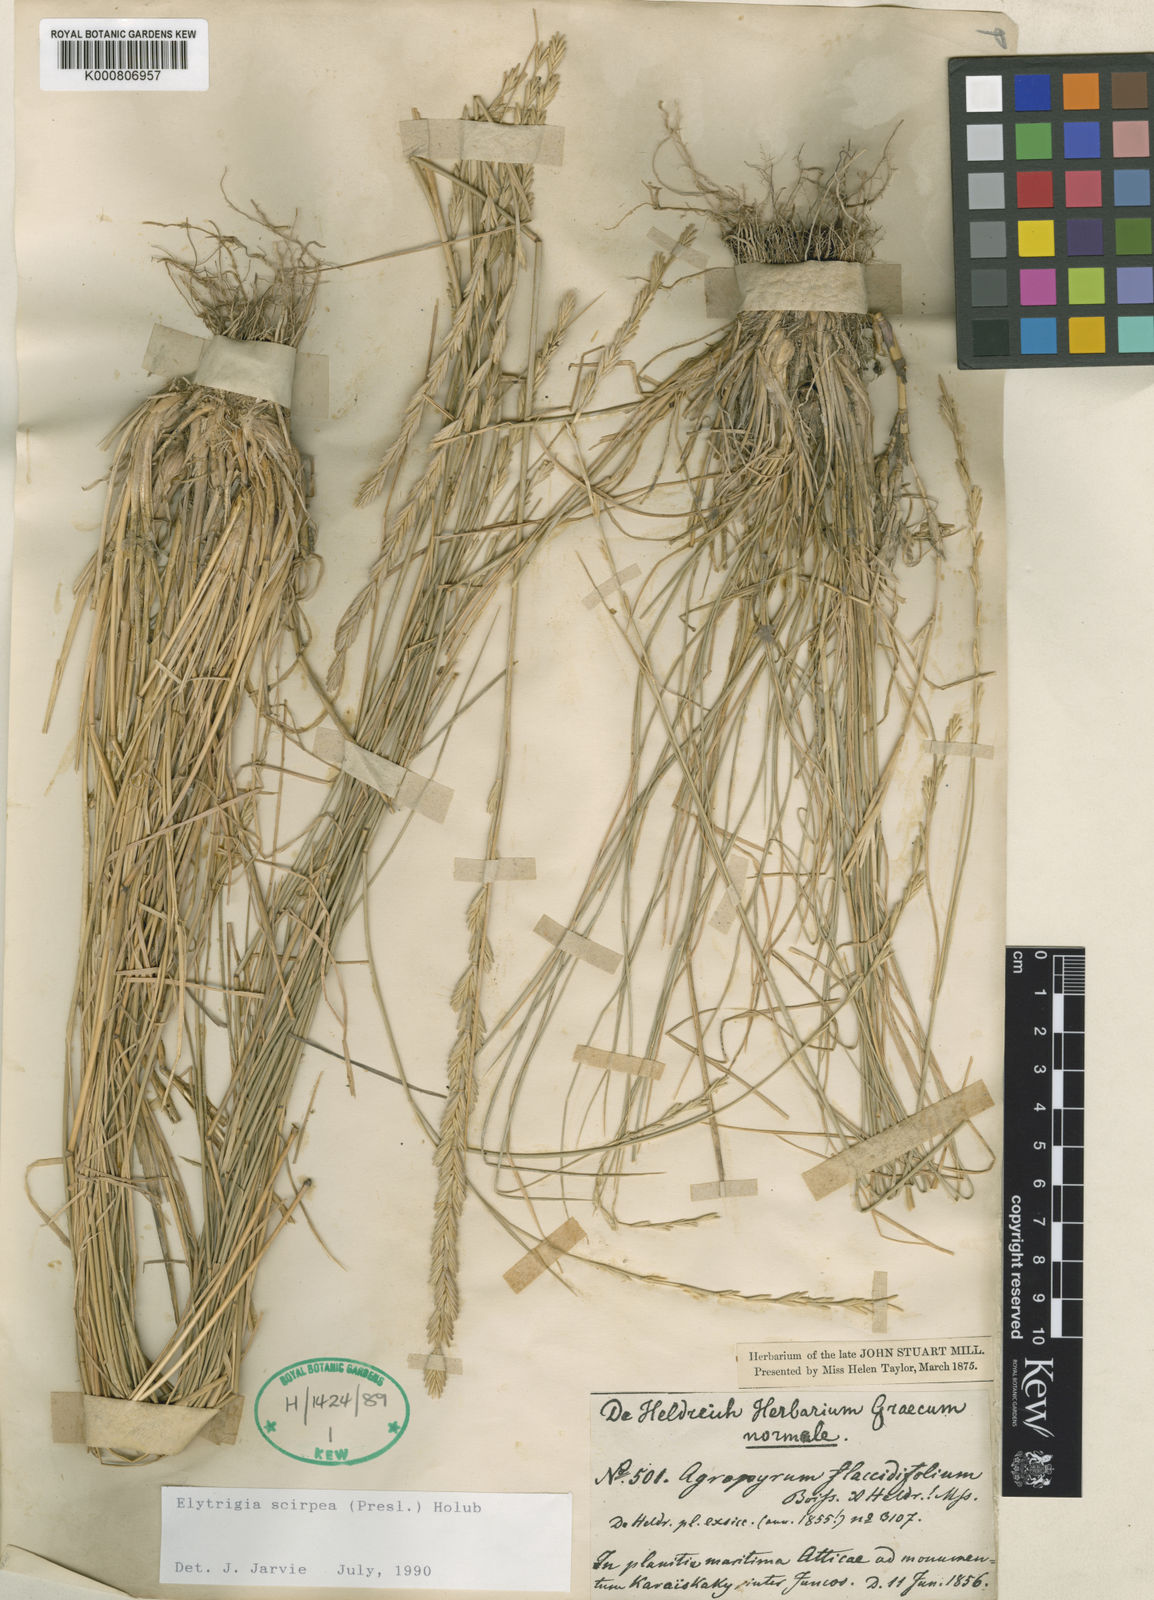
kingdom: Plantae
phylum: Tracheophyta
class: Liliopsida
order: Poales
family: Poaceae
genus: Thinopyrum
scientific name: Thinopyrum flaccidifolium
